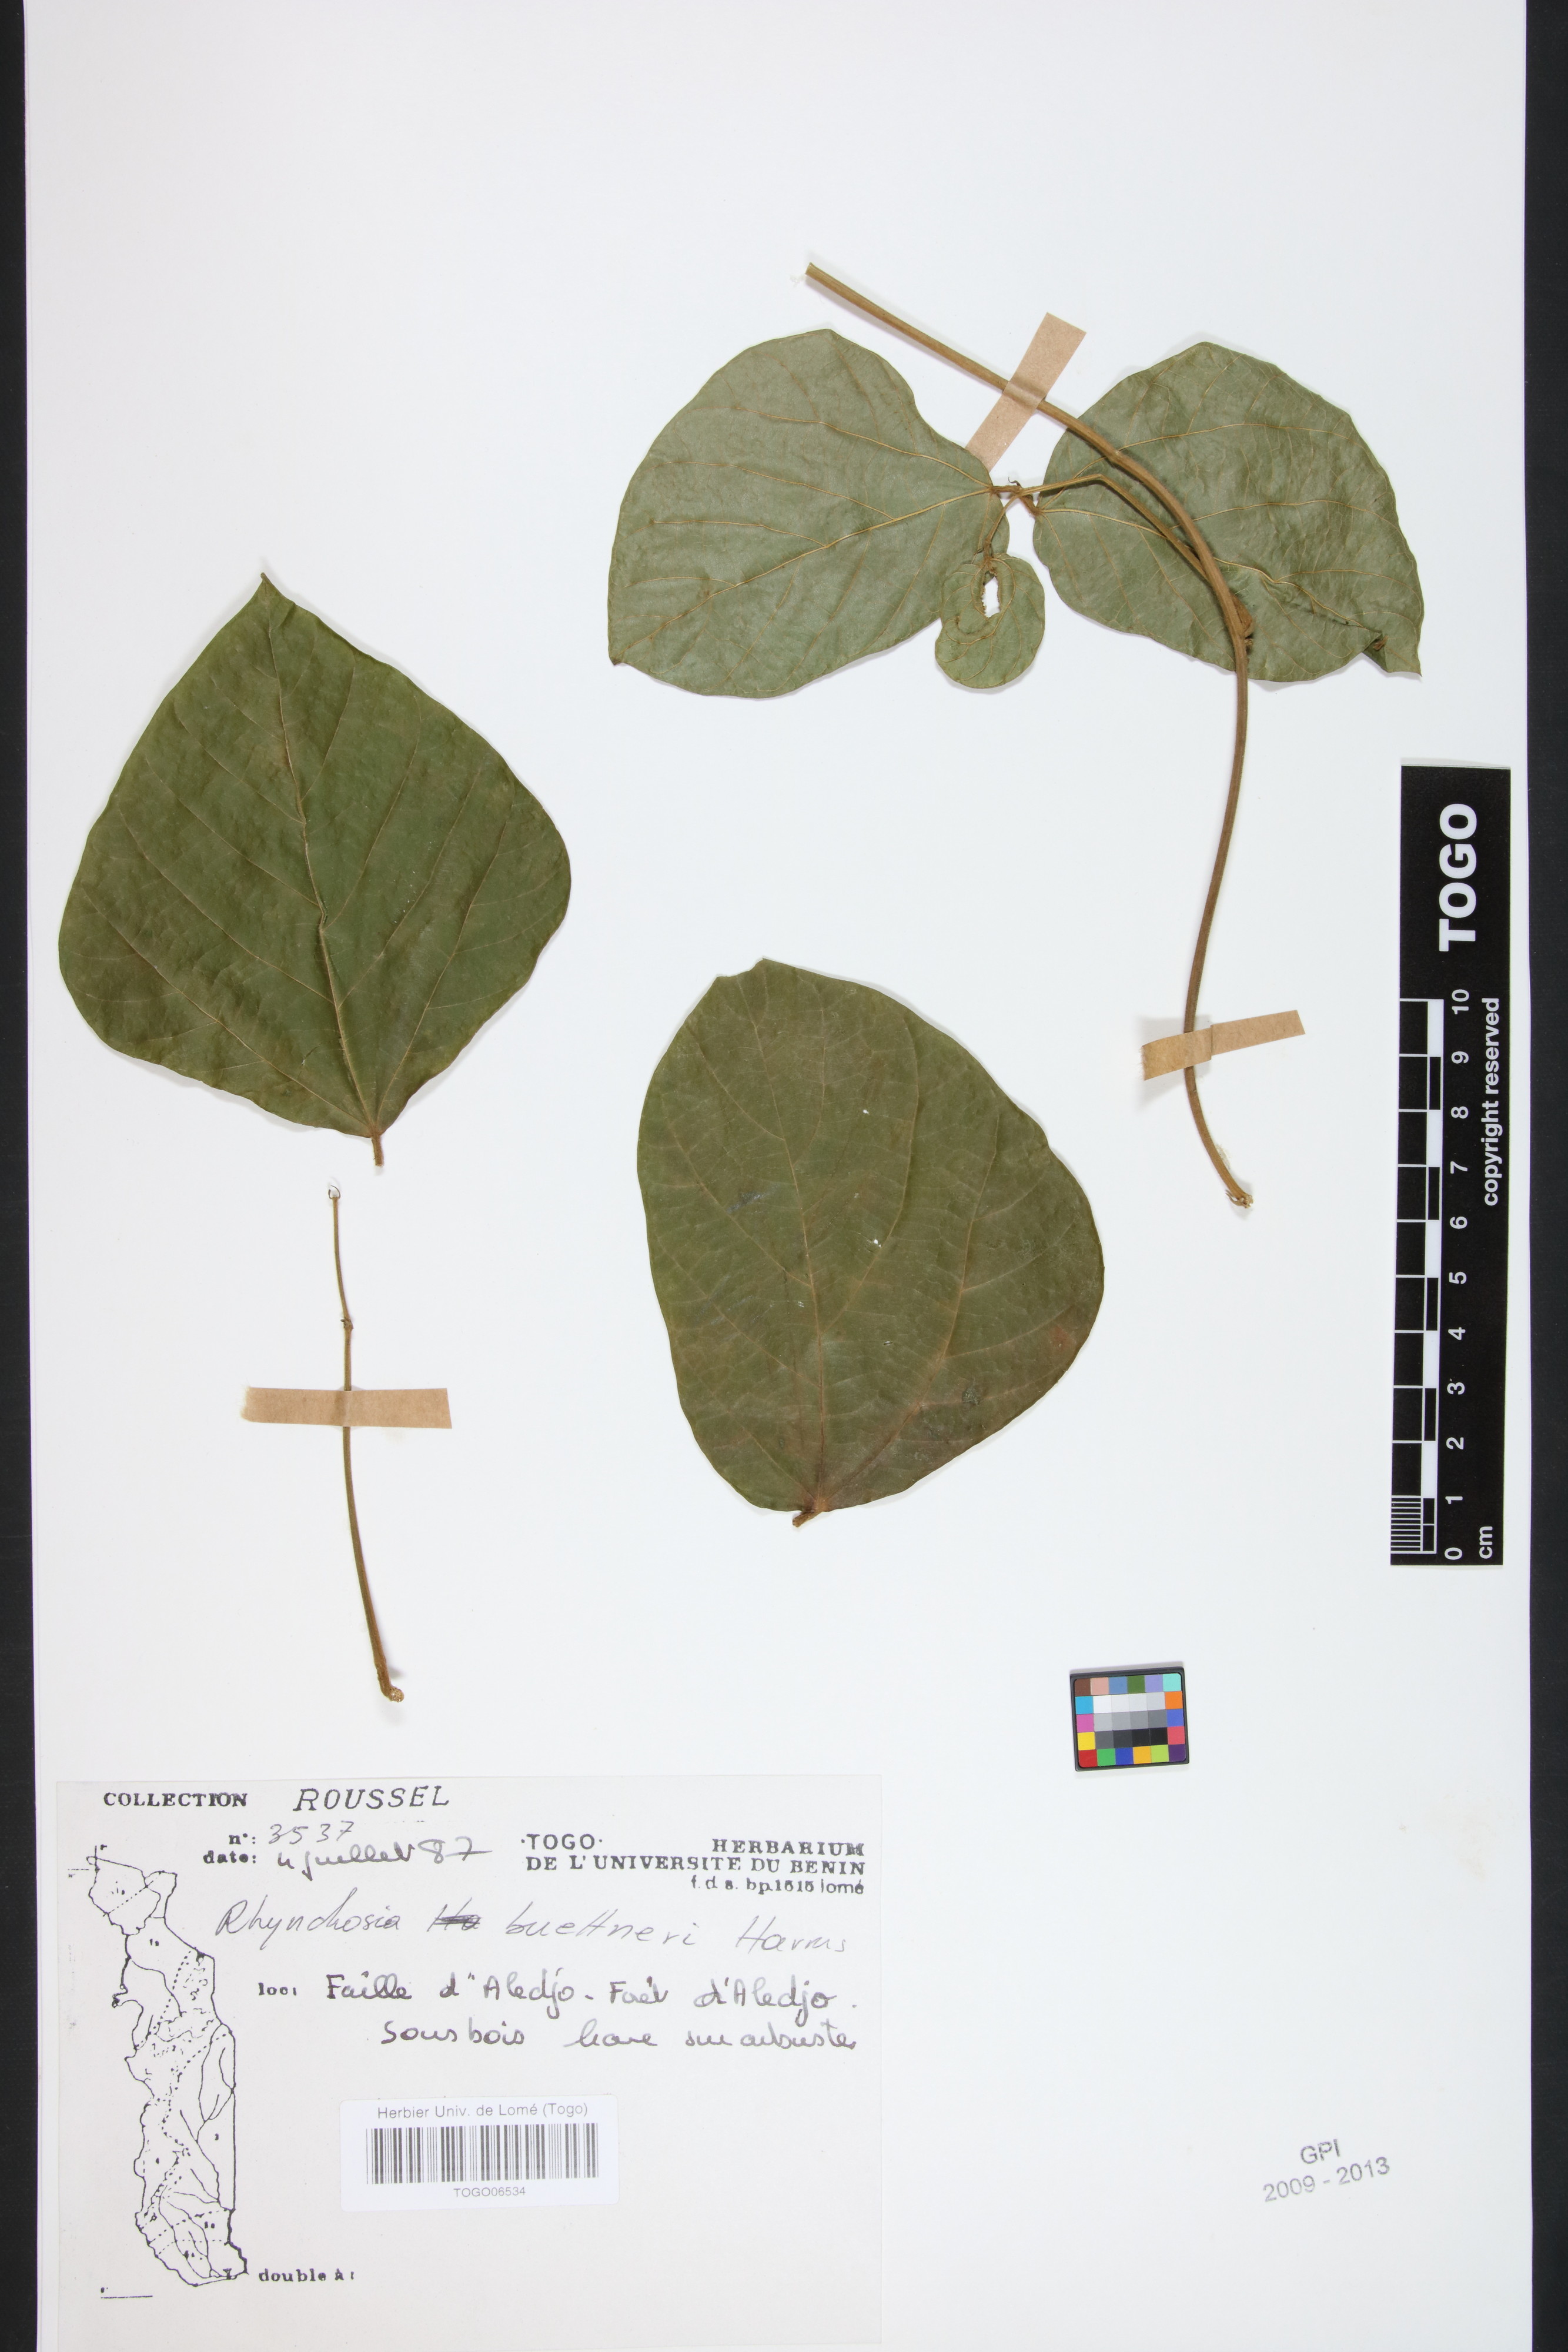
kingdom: Plantae
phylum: Tracheophyta
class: Magnoliopsida
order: Fabales
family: Fabaceae
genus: Rhynchosia
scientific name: Rhynchosia buettneri
